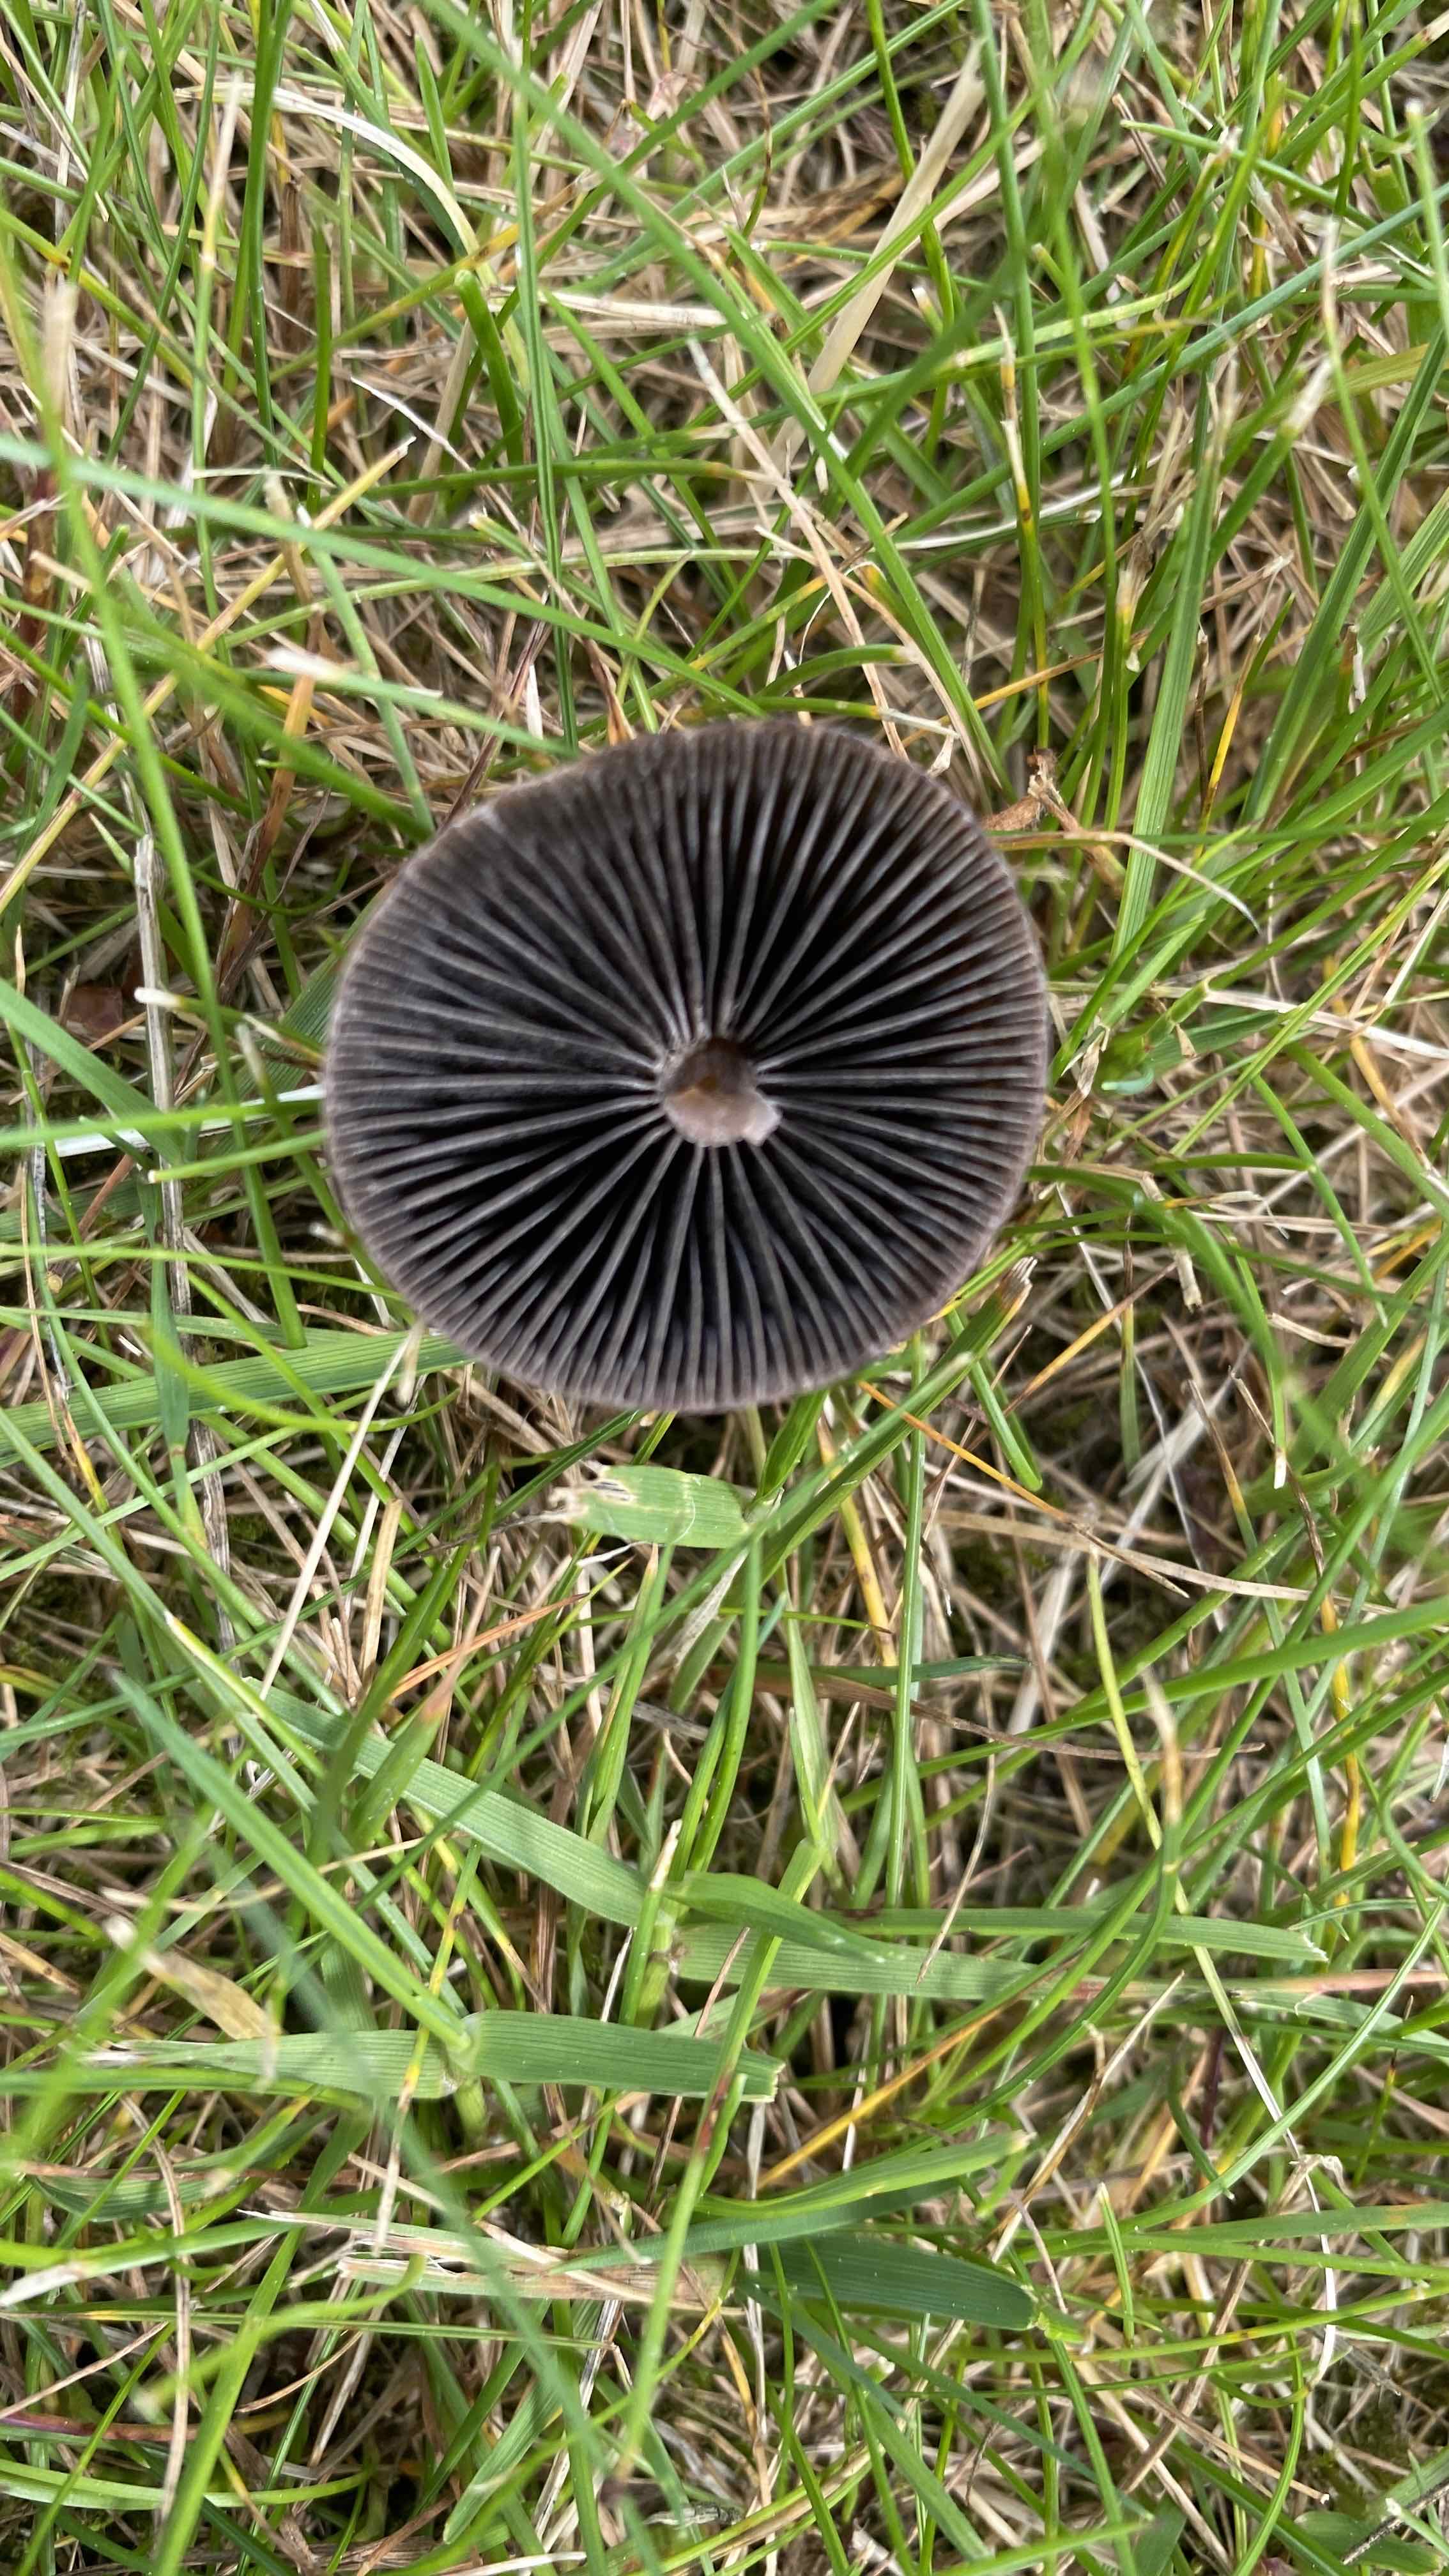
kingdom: Fungi
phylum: Basidiomycota
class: Agaricomycetes
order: Agaricales
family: Bolbitiaceae
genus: Panaeolus
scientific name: Panaeolus fimicola
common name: tidlig glanshat
